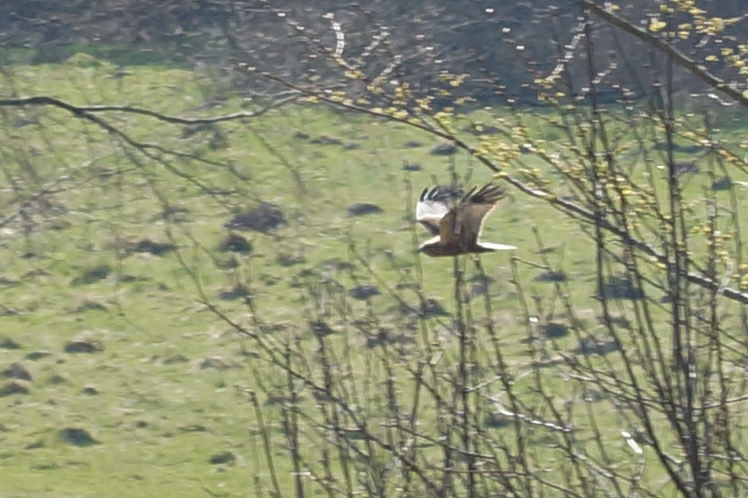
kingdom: Animalia
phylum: Chordata
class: Aves
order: Accipitriformes
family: Accipitridae
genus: Circus
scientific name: Circus aeruginosus
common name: Rørhøg
